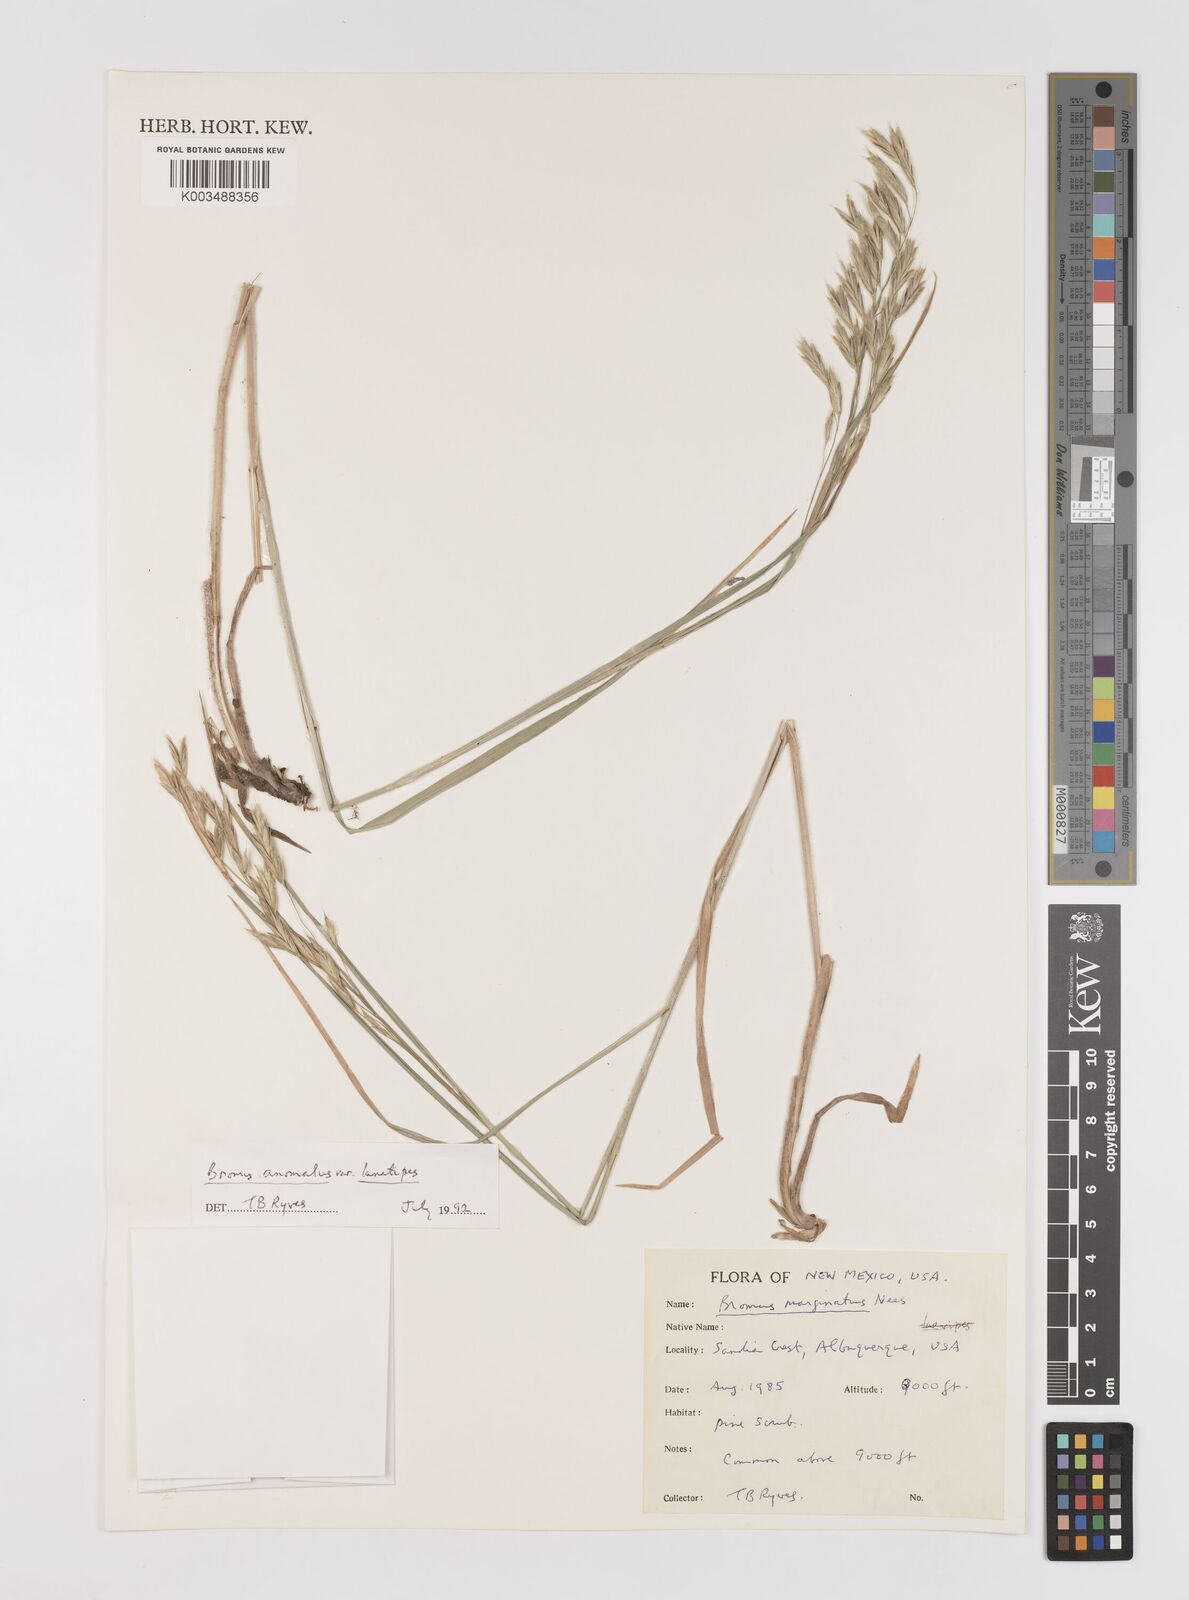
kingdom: Plantae
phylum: Tracheophyta
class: Liliopsida
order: Poales
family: Poaceae
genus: Bromus
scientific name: Bromus lanatipes
